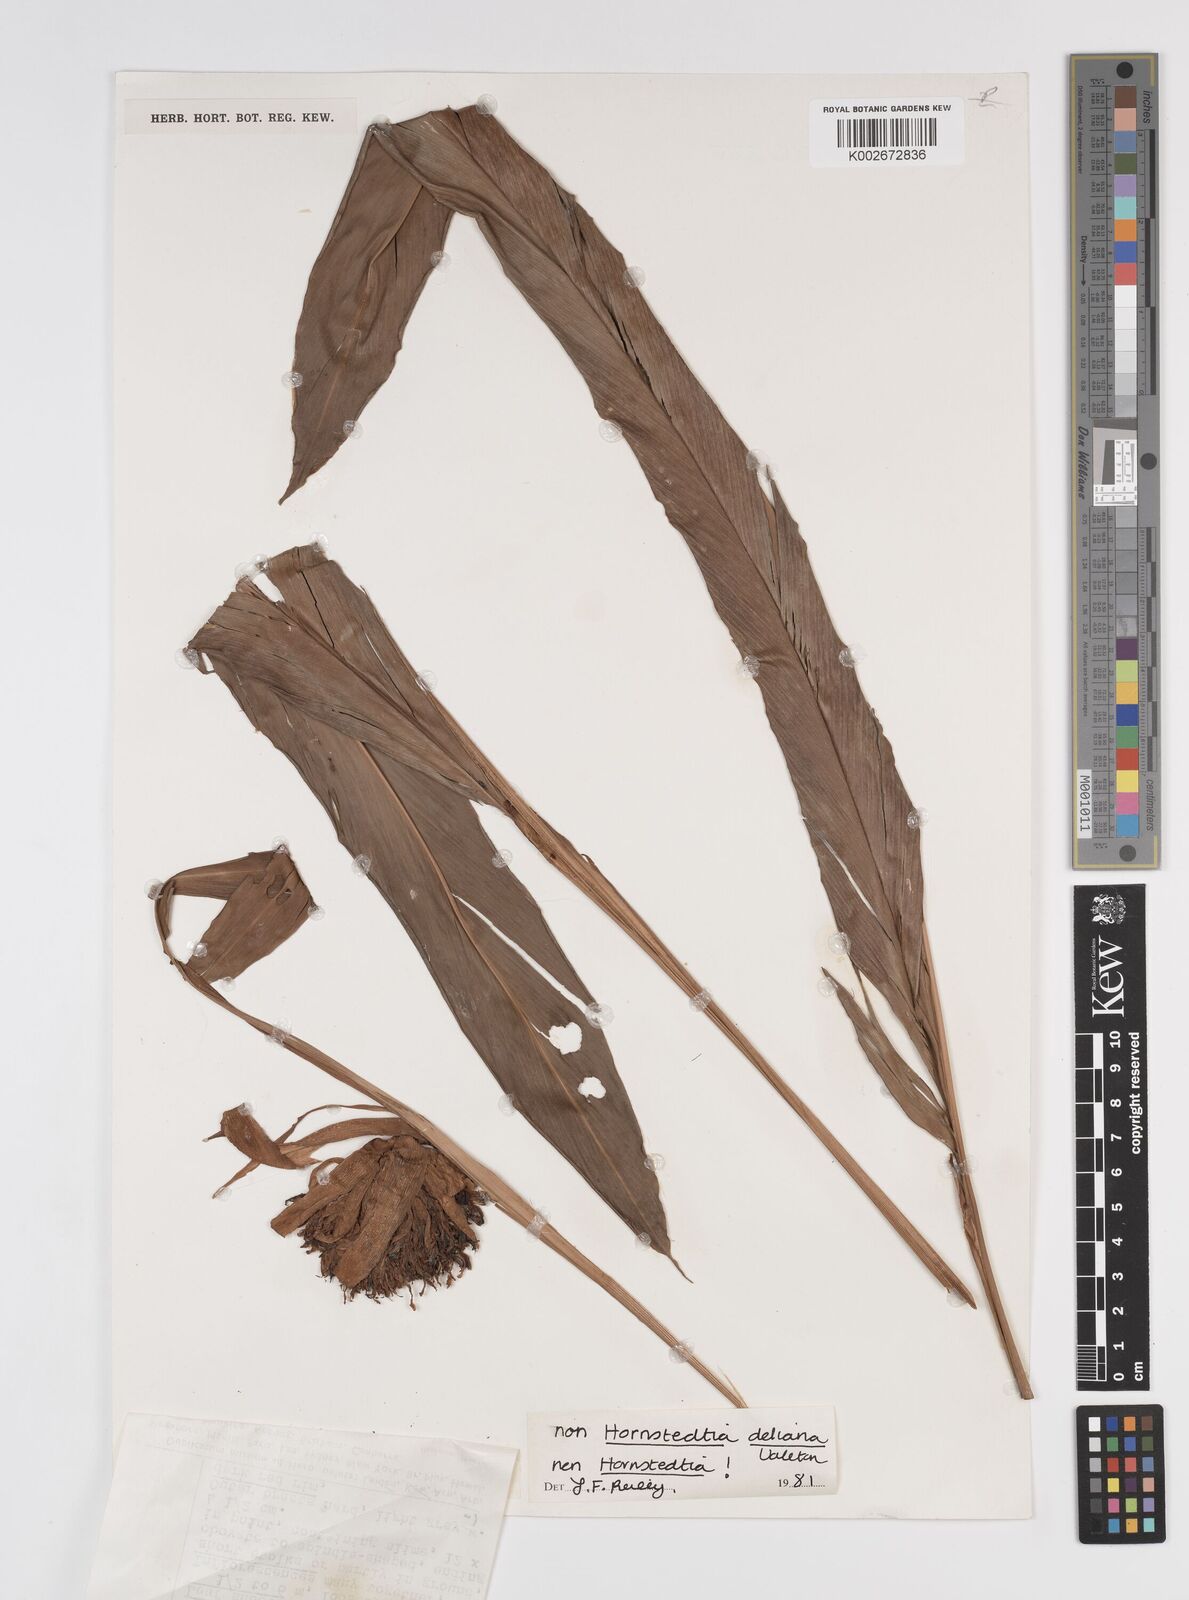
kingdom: Plantae
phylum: Tracheophyta
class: Liliopsida
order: Zingiberales
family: Zingiberaceae
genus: Etlingera
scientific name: Etlingera
